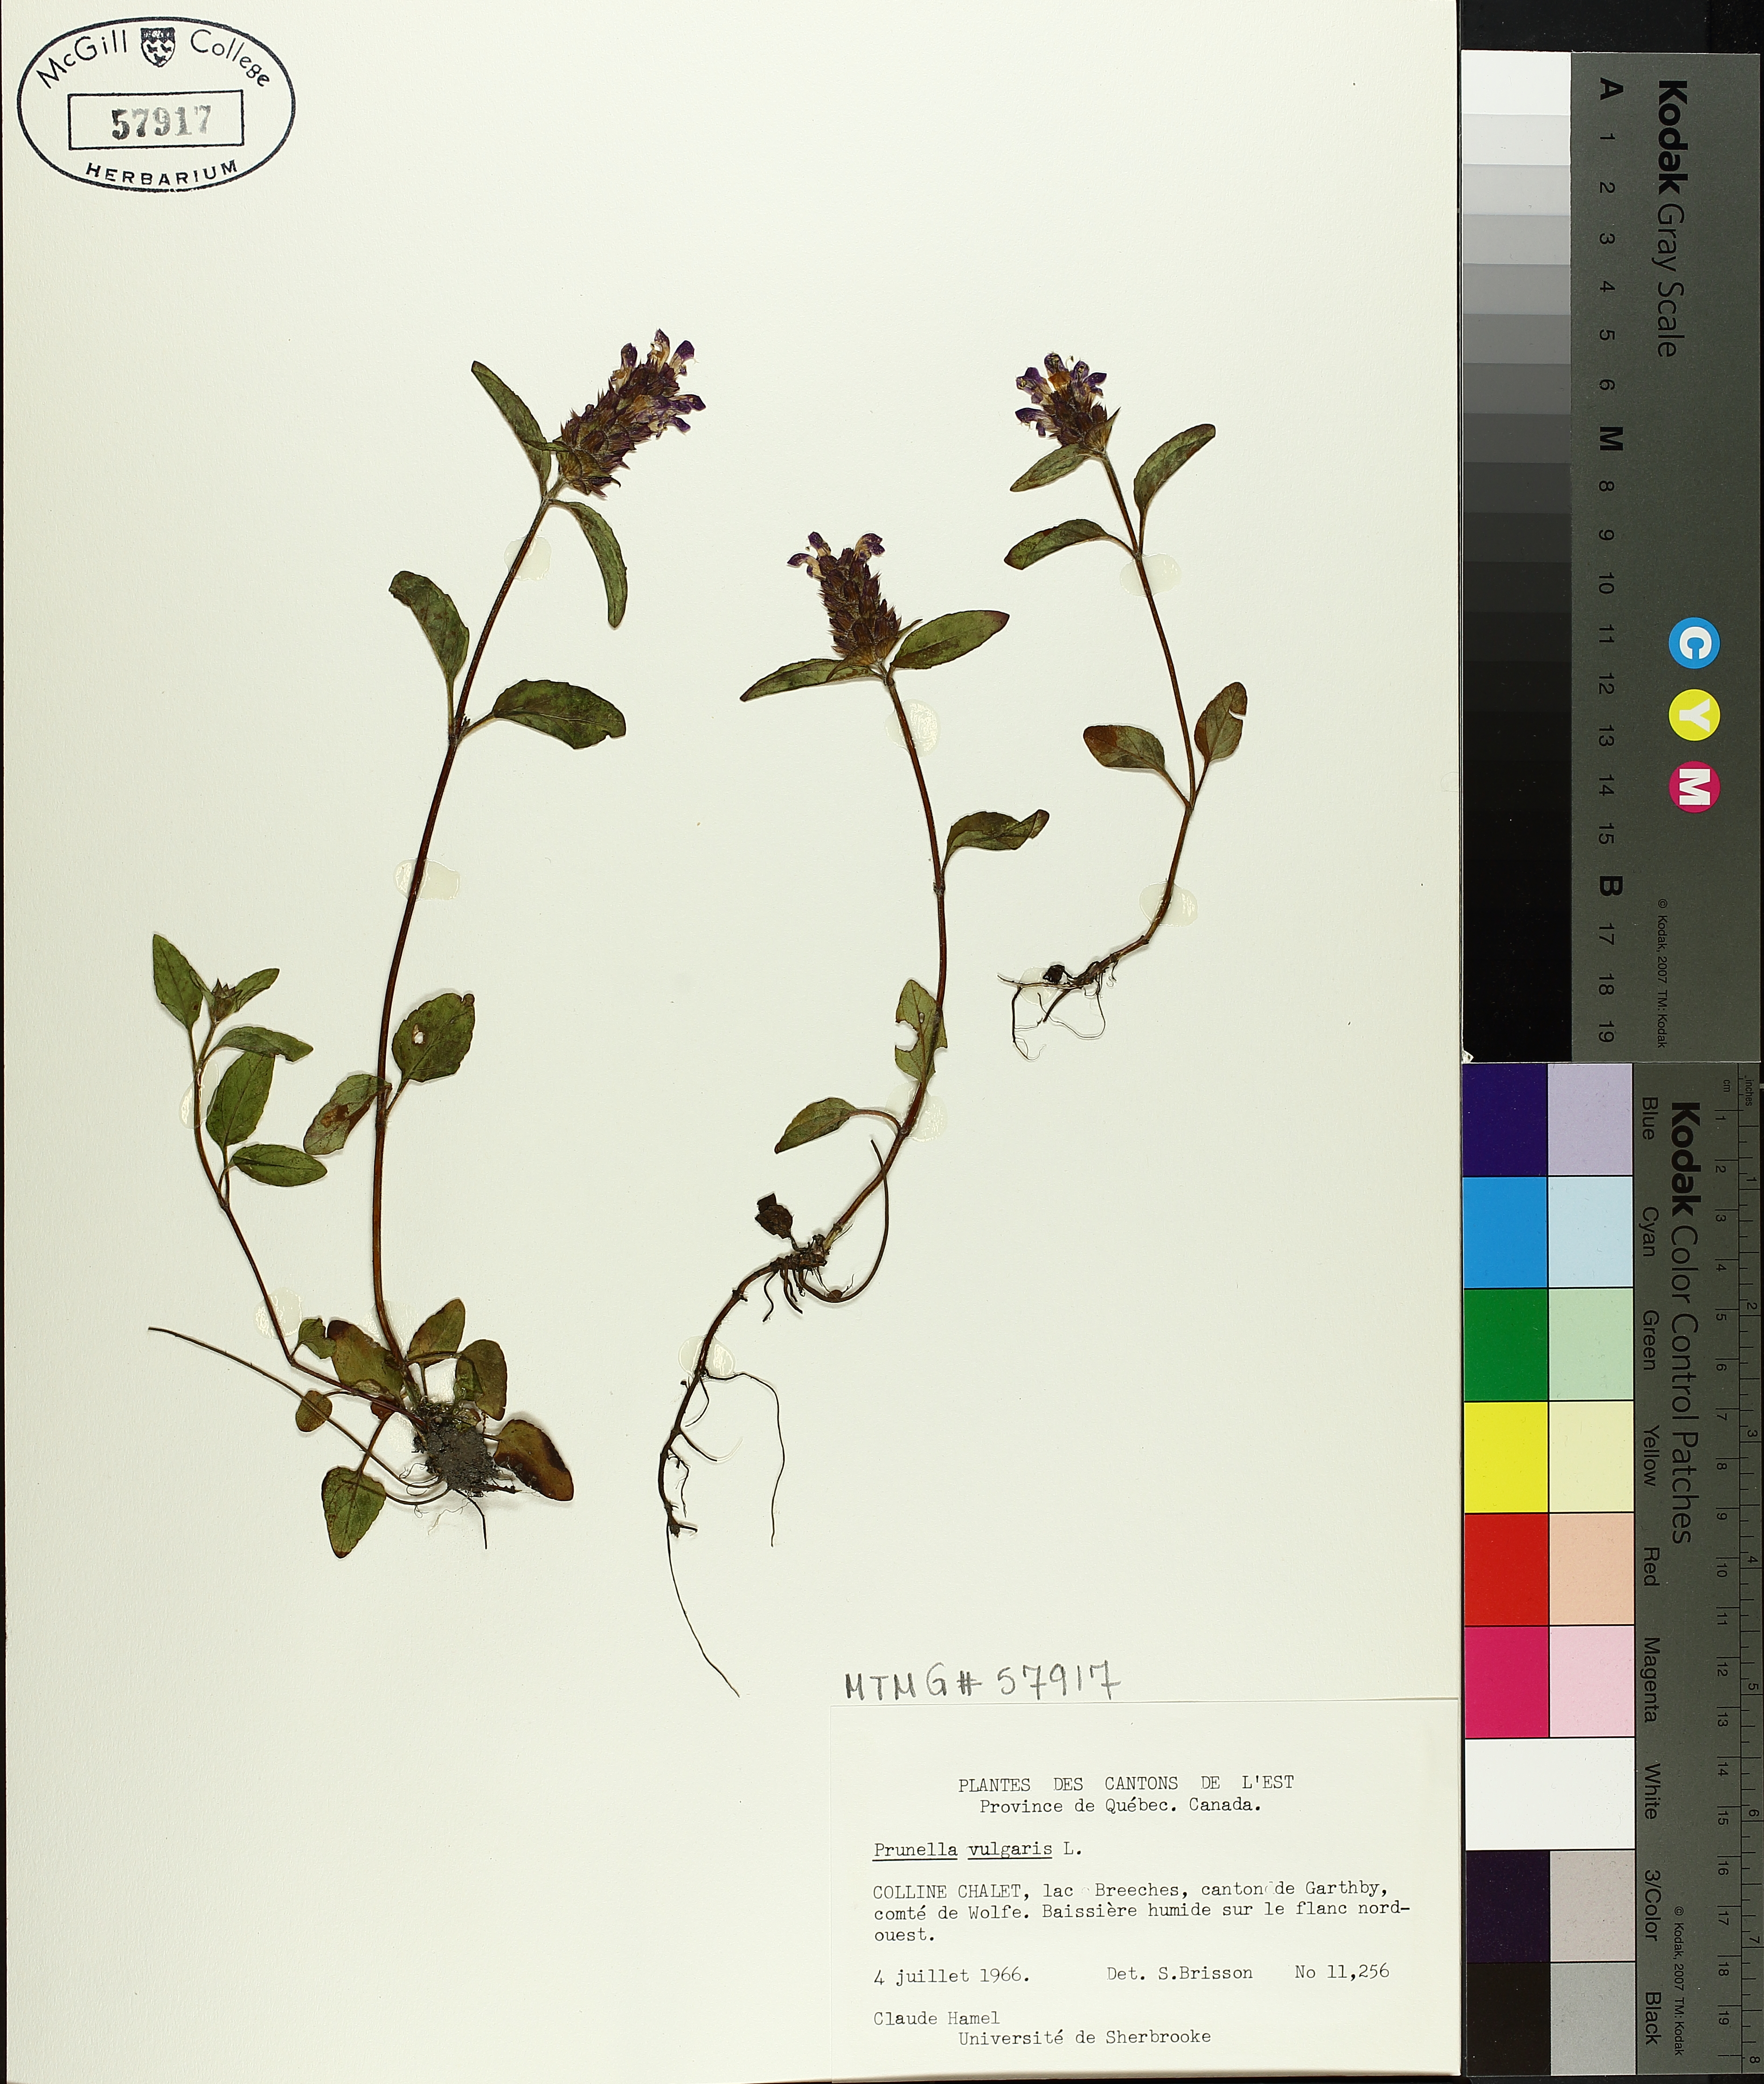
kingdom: Plantae
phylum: Tracheophyta
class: Magnoliopsida
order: Lamiales
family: Lamiaceae
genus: Prunella
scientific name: Prunella vulgaris
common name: Heal-all
